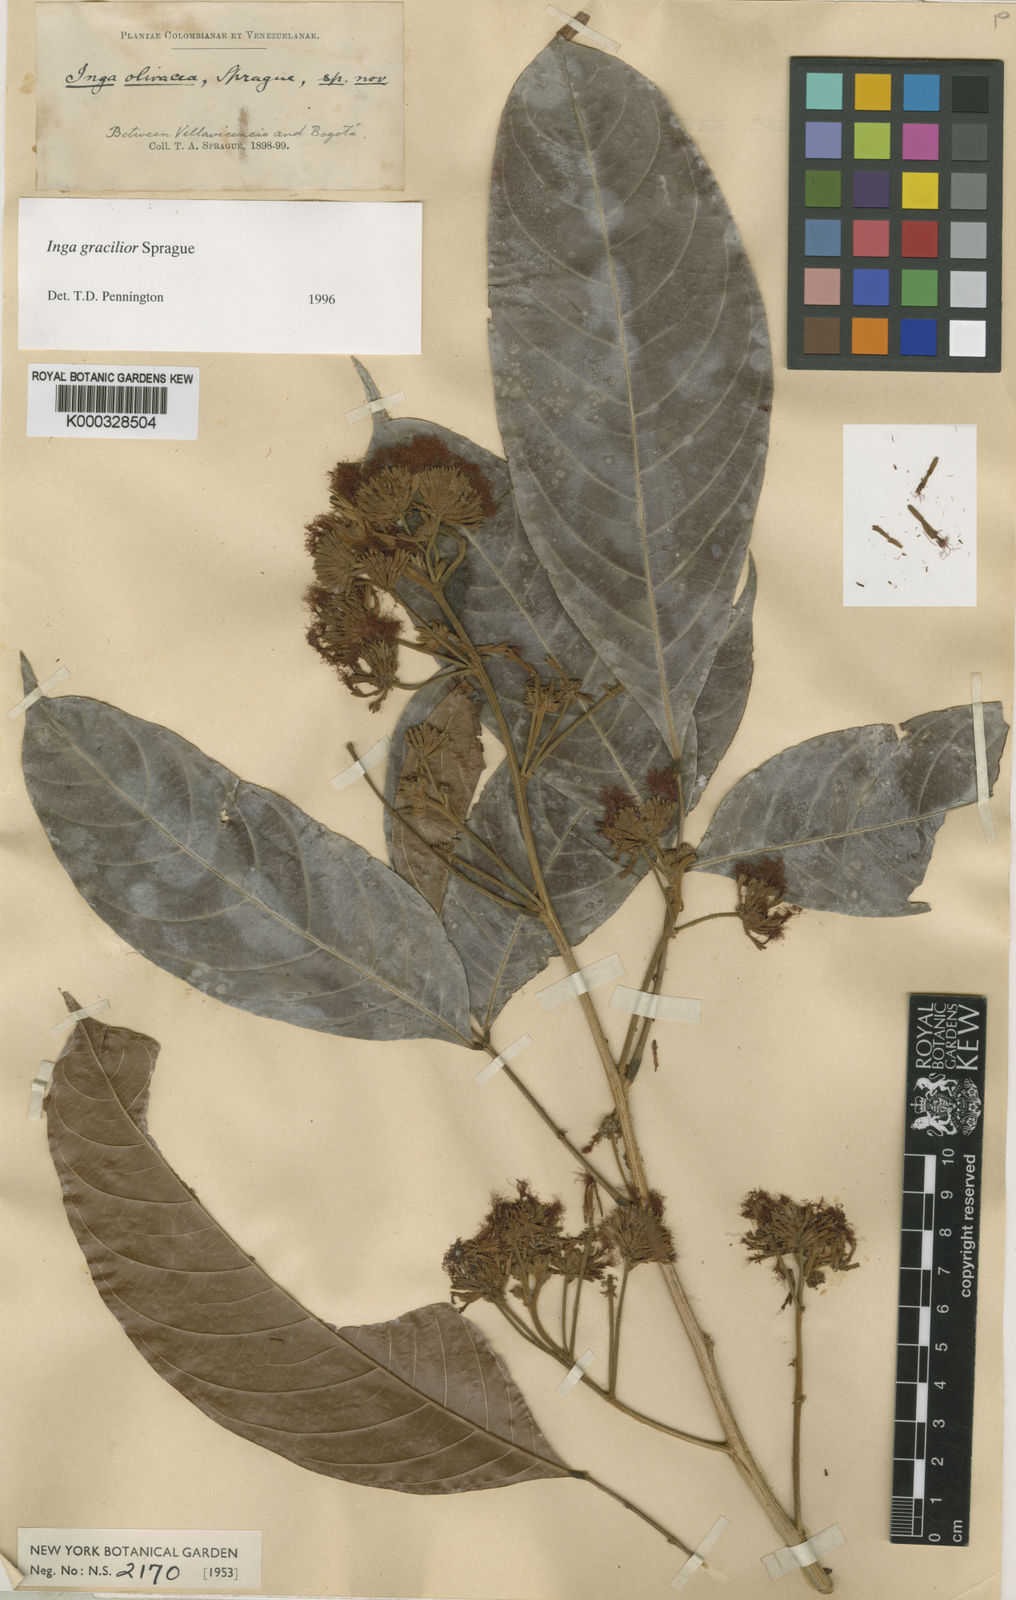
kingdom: Plantae
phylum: Tracheophyta
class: Magnoliopsida
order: Fabales
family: Fabaceae
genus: Inga
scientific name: Inga gracilior
